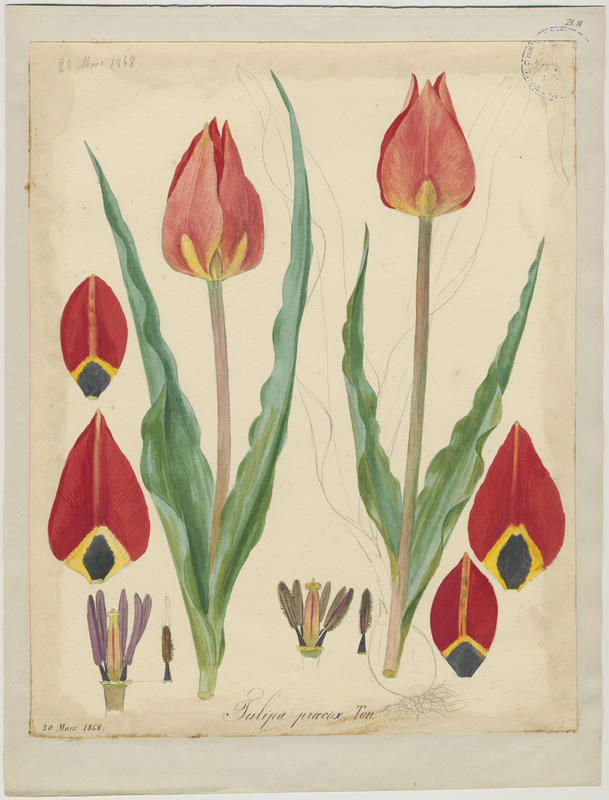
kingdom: Plantae
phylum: Tracheophyta
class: Liliopsida
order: Liliales
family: Liliaceae
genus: Tulipa
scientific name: Tulipa agenensis
